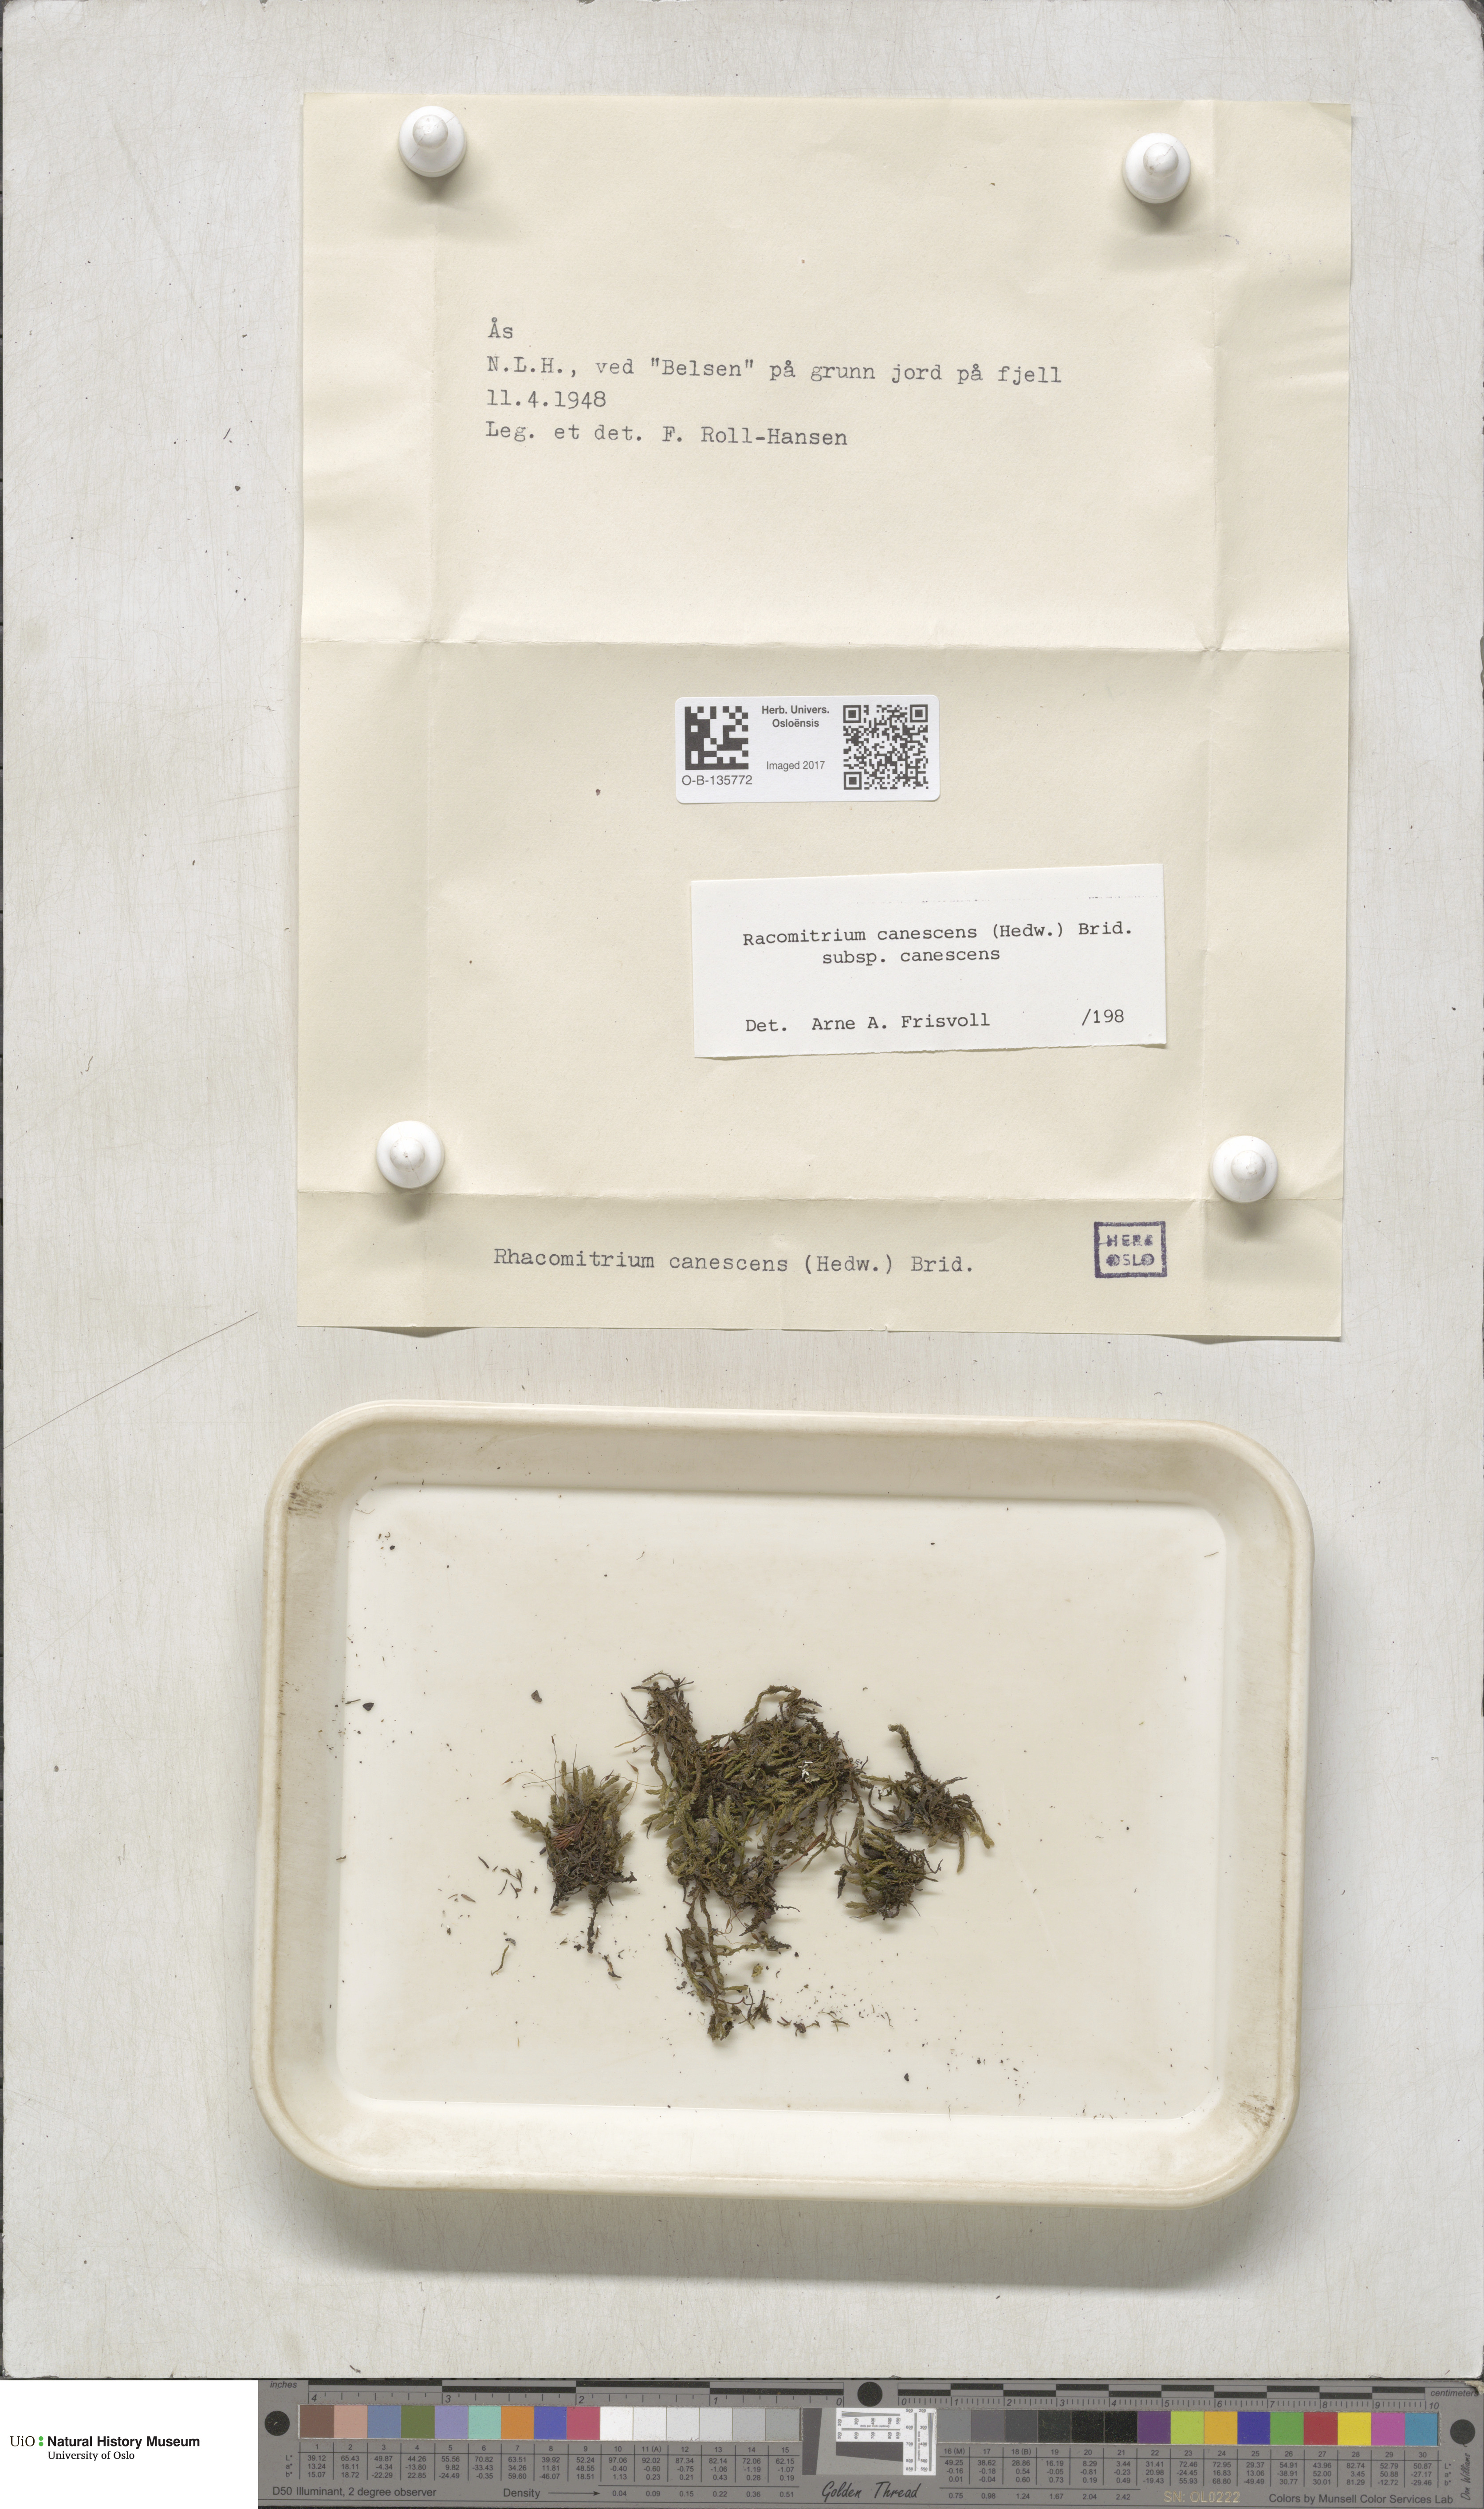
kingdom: Plantae
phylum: Bryophyta
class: Bryopsida
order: Grimmiales
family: Grimmiaceae
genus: Niphotrichum
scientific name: Niphotrichum canescens
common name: Hoary fringe-moss
